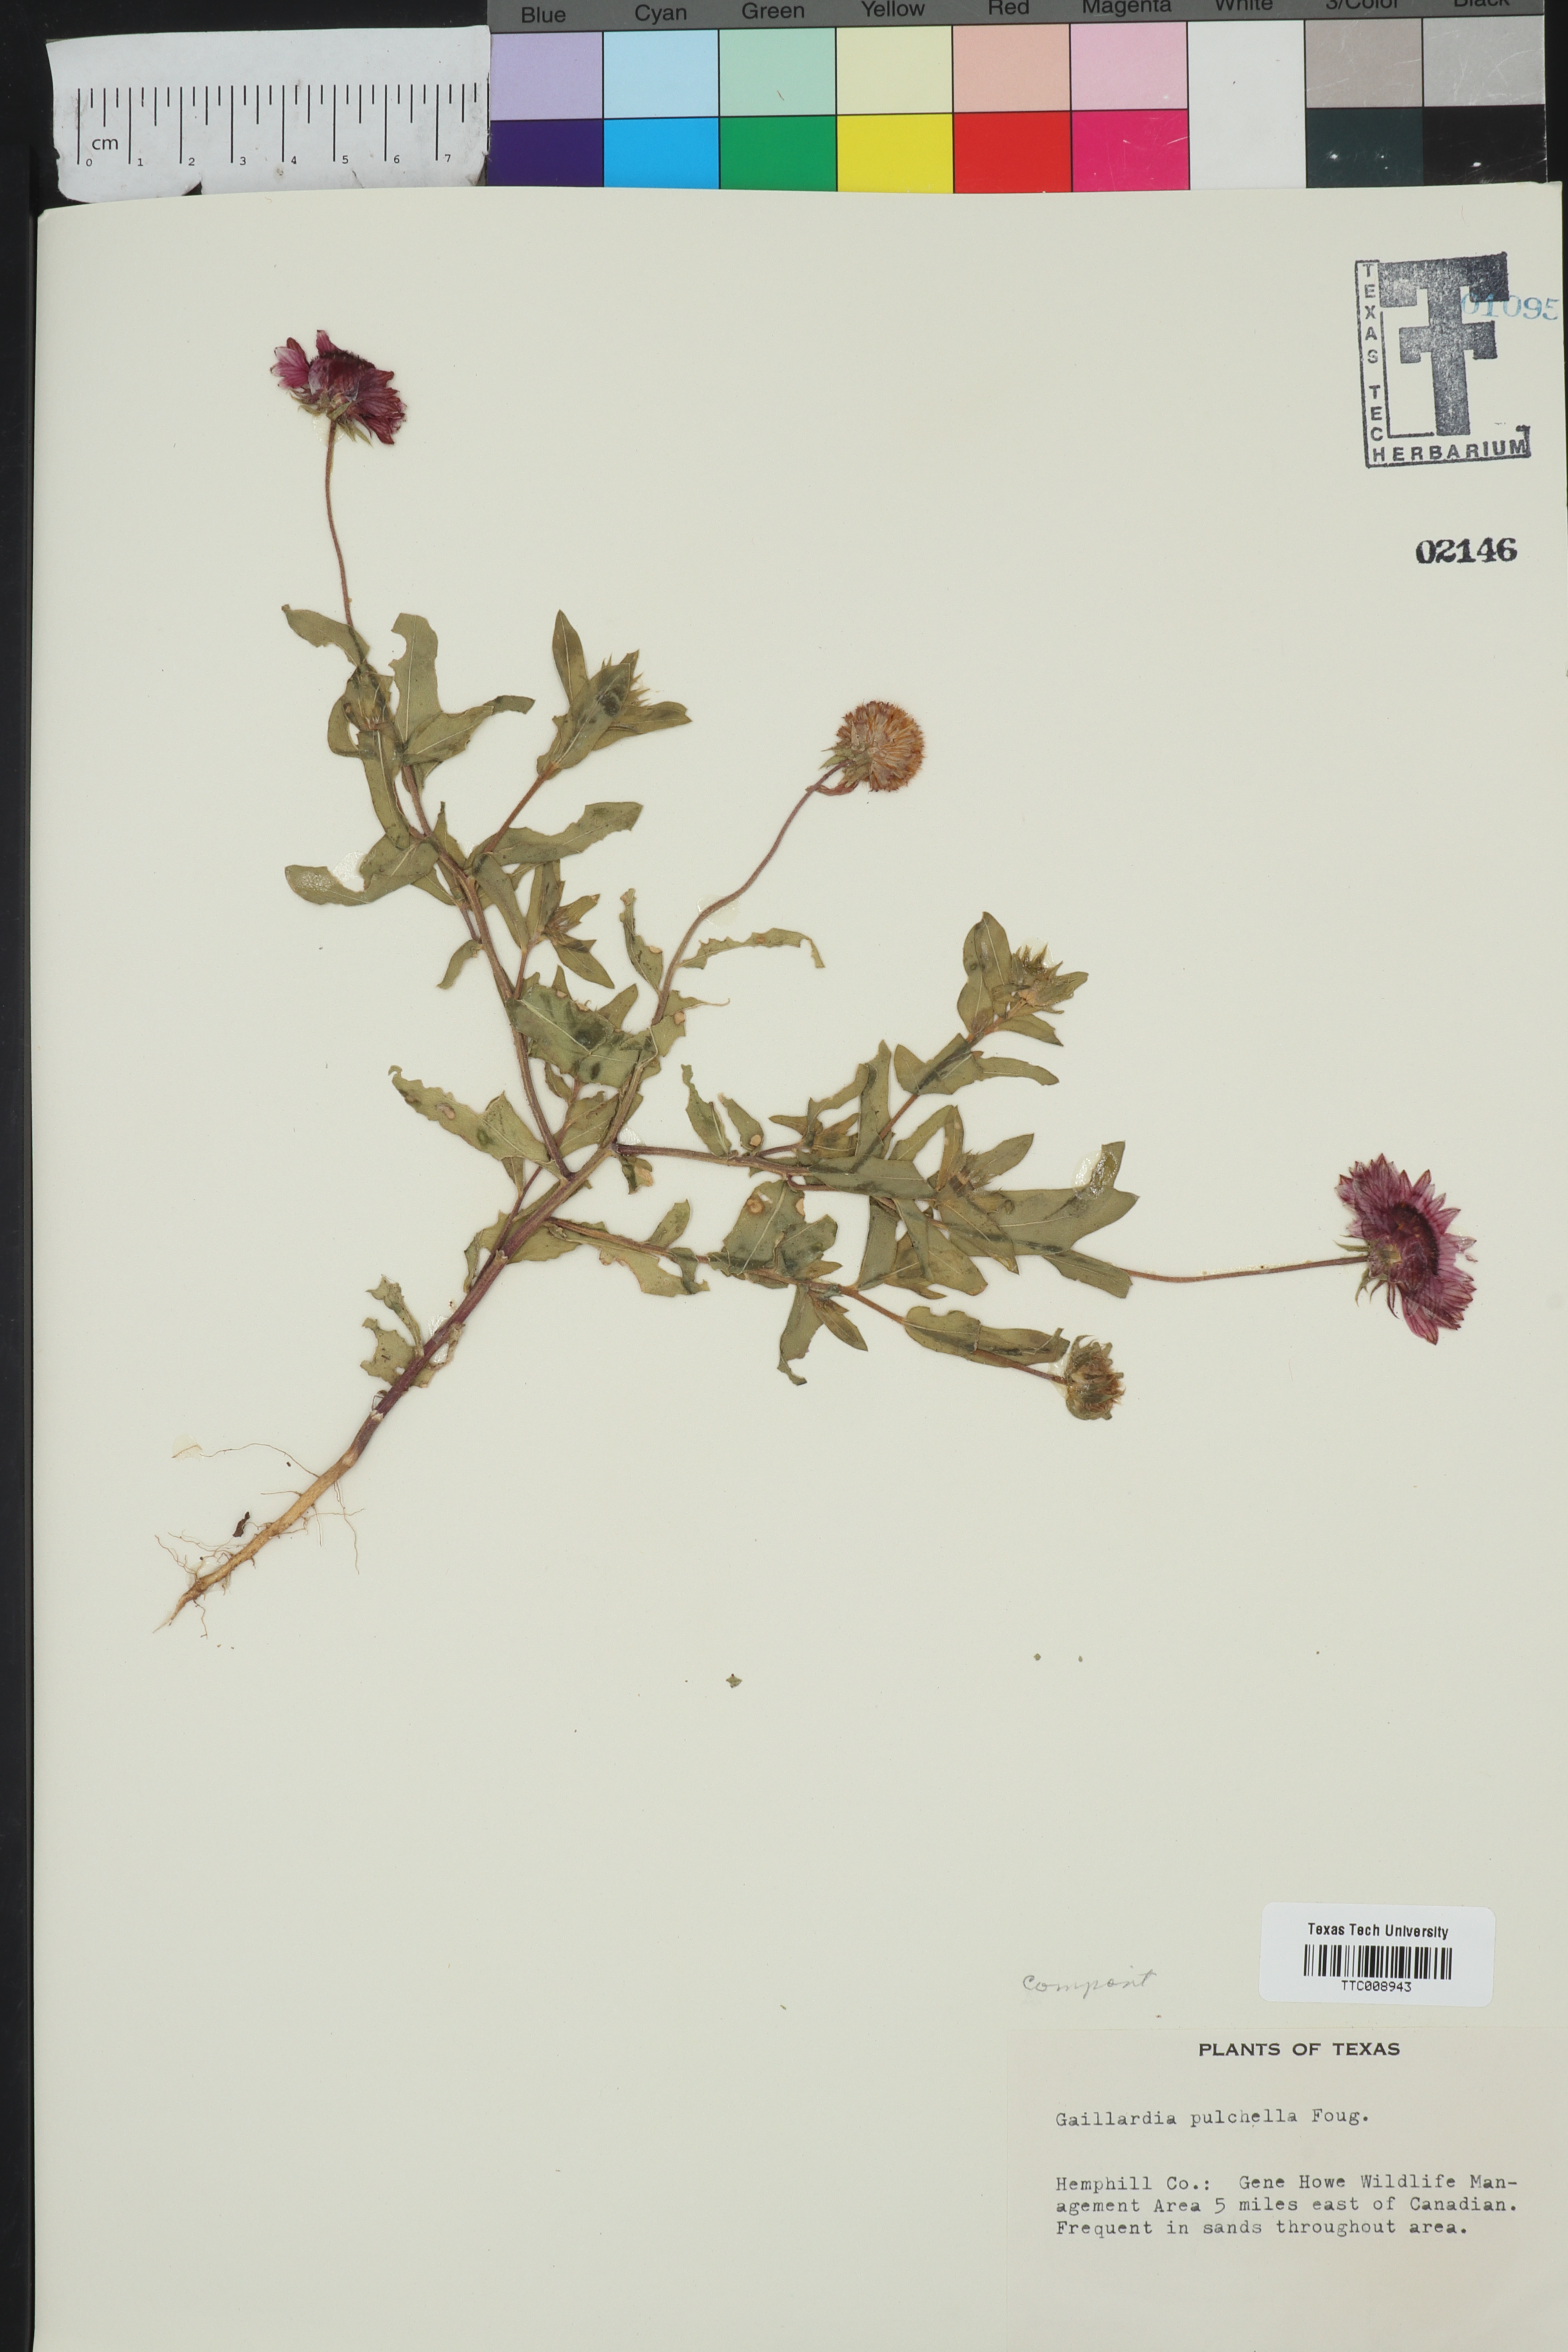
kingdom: Plantae
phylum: Tracheophyta
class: Magnoliopsida
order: Asterales
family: Asteraceae
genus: Gaillardia
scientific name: Gaillardia pulchella
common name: Firewheel
